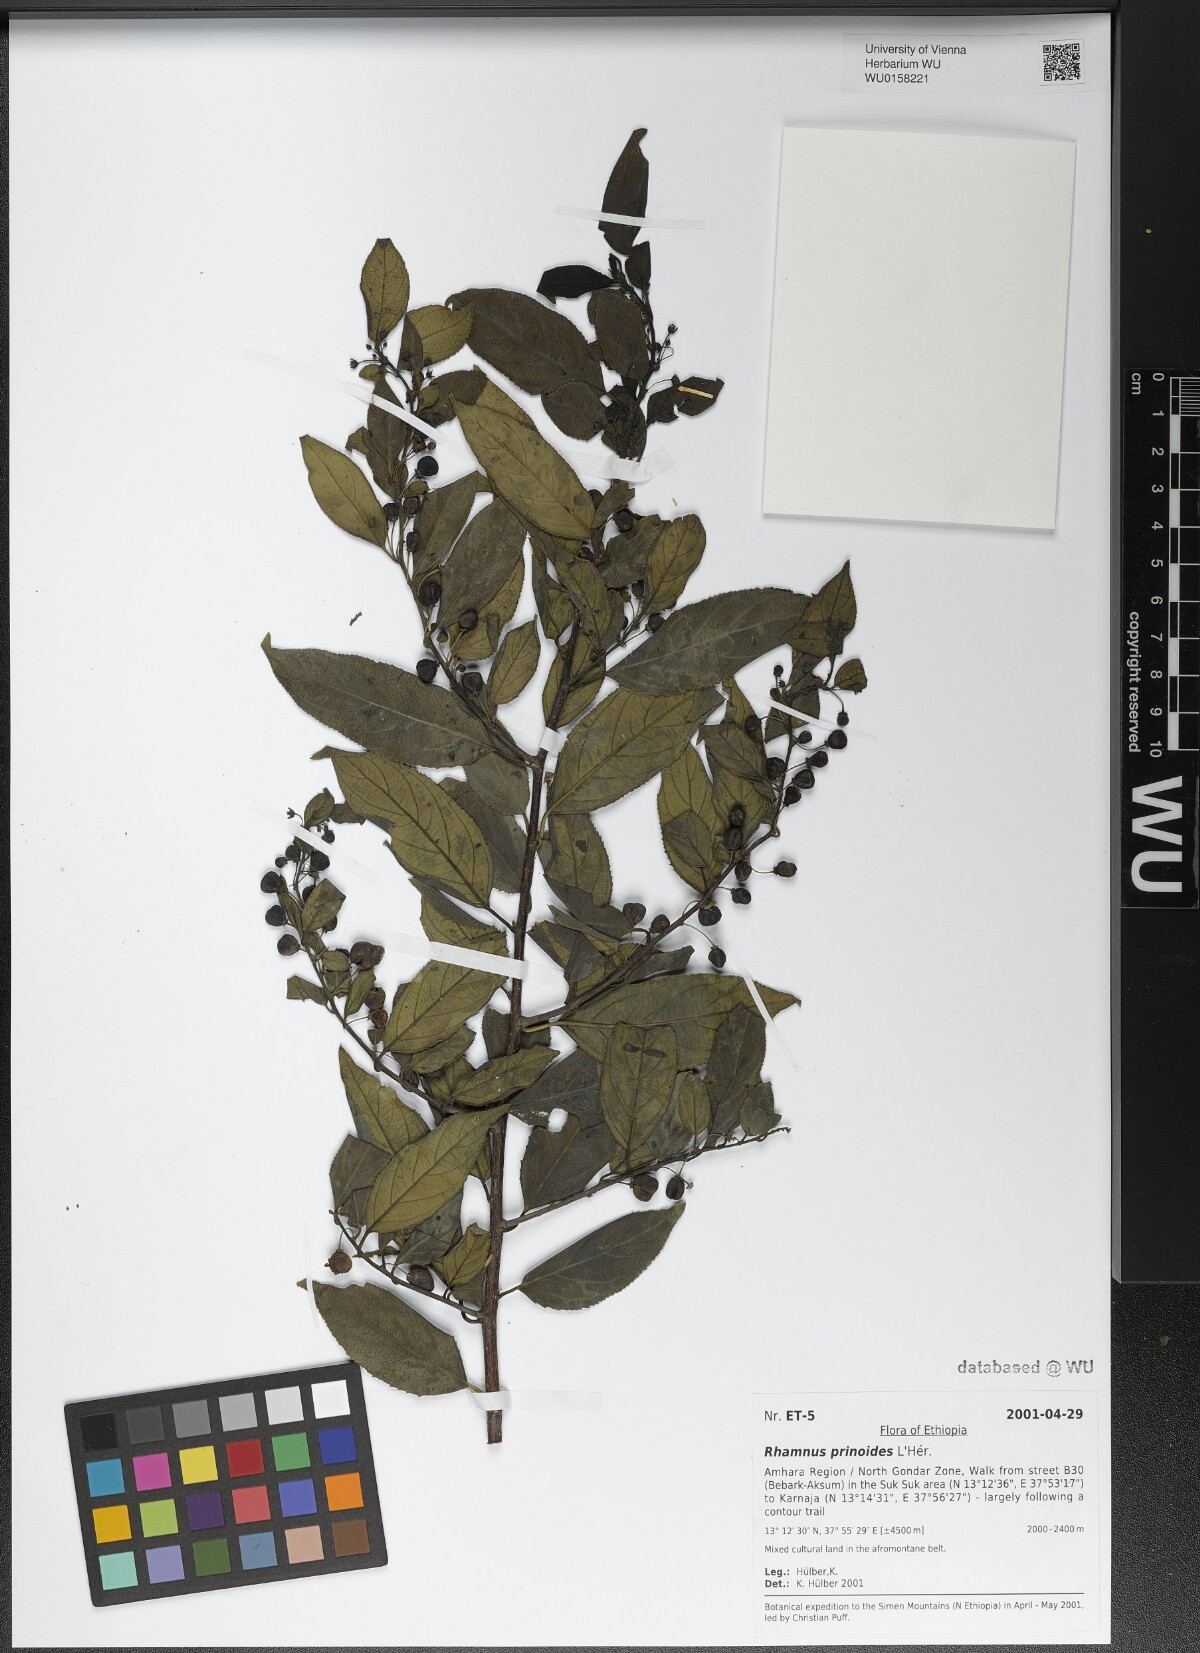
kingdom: Plantae
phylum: Tracheophyta
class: Magnoliopsida
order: Rosales
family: Rhamnaceae
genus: Rhamnus
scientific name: Rhamnus prinoides
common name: Dogwood
